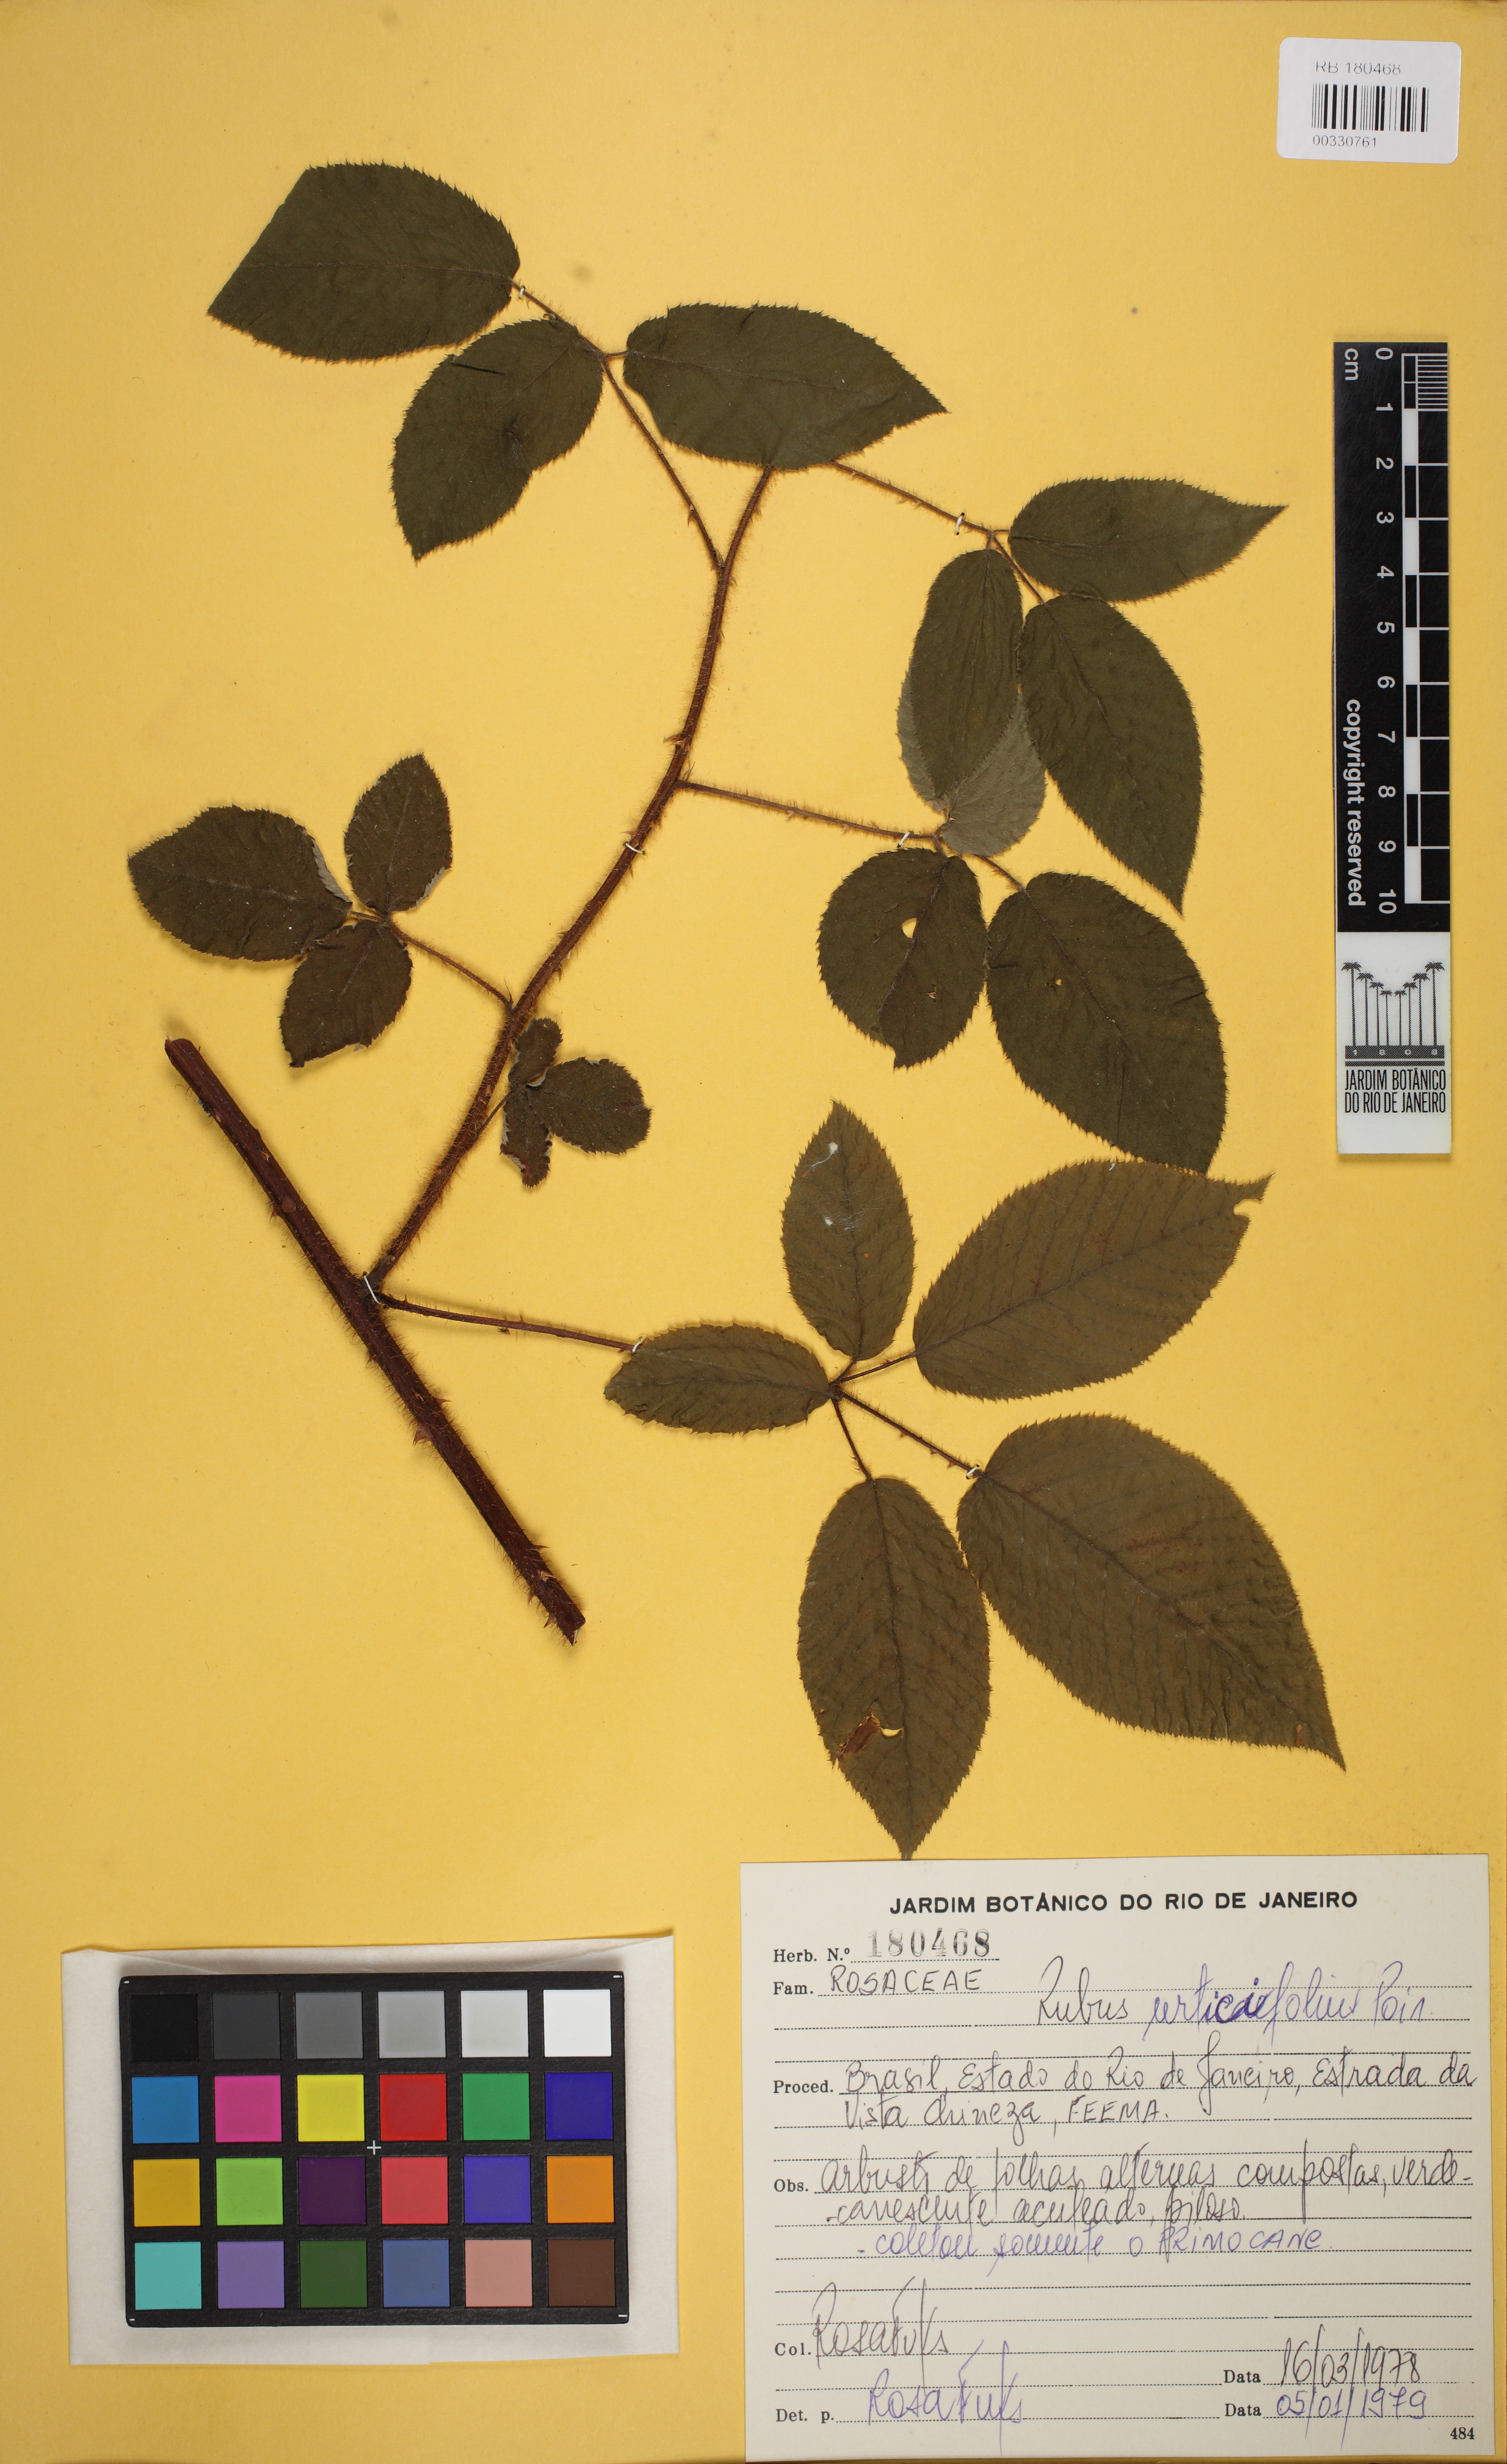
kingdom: Plantae
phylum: Tracheophyta
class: Magnoliopsida
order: Rosales
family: Rosaceae
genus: Rubus
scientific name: Rubus urticifolius
